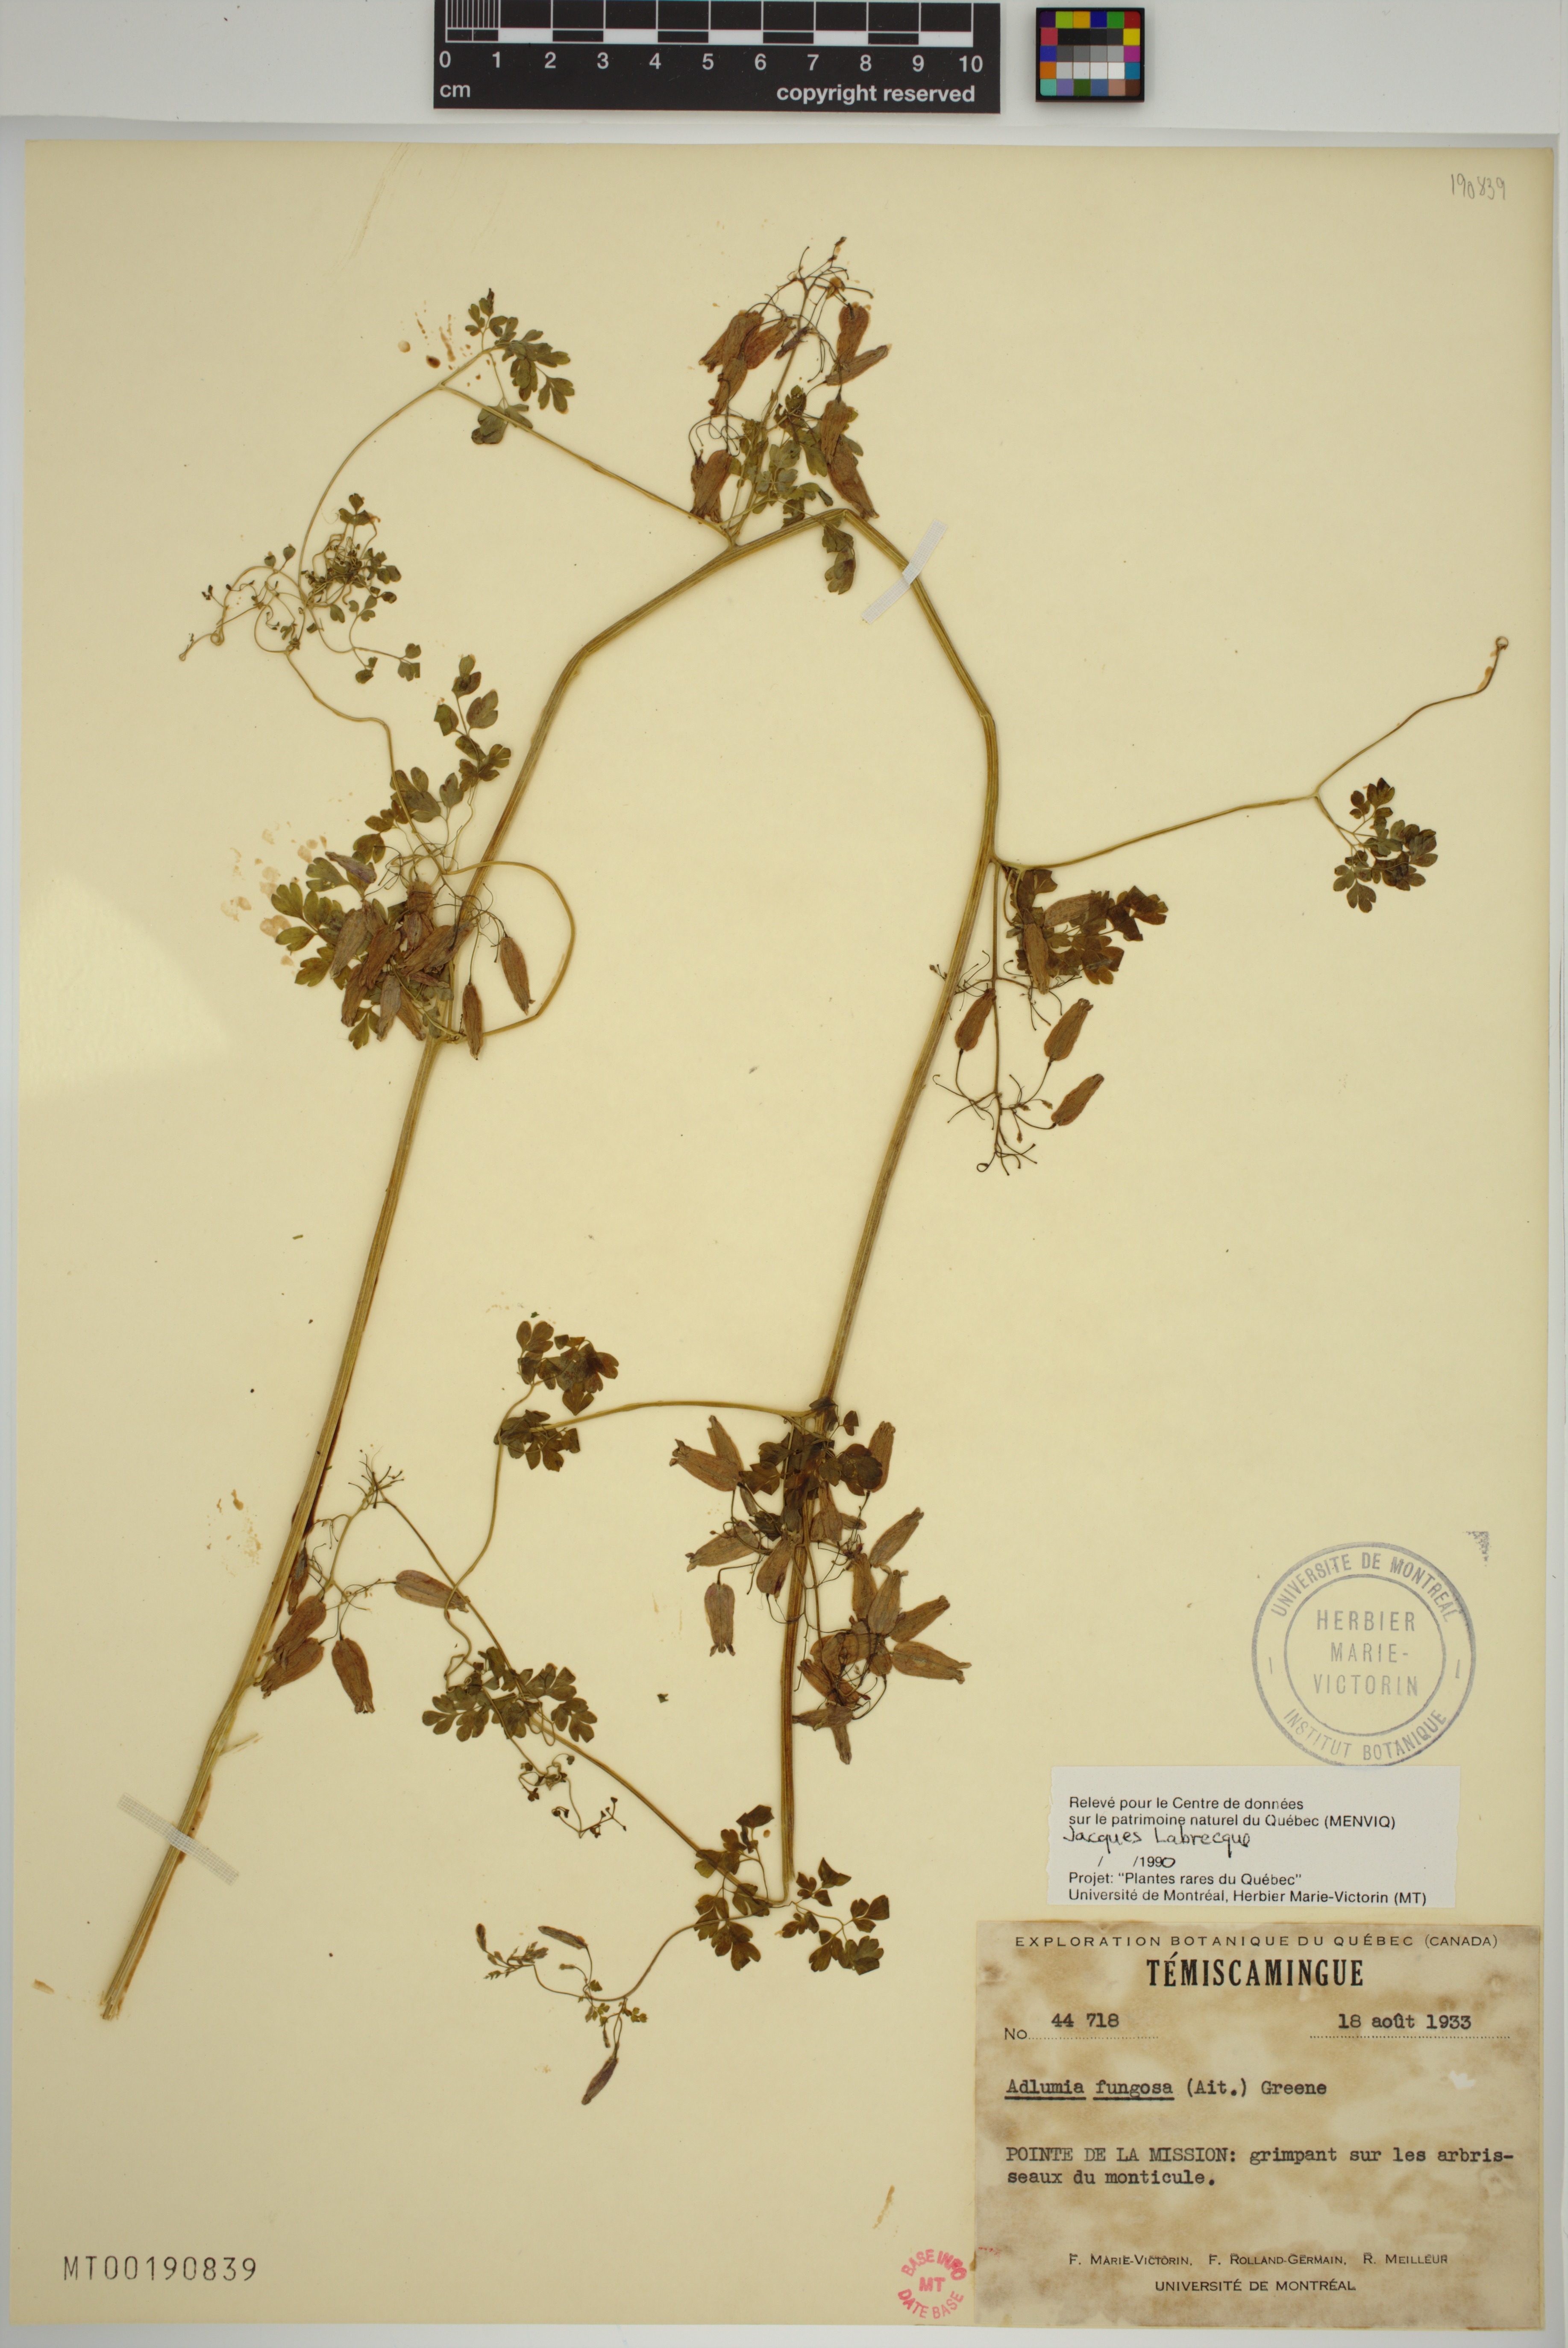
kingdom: Plantae
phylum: Tracheophyta
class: Magnoliopsida
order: Ranunculales
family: Papaveraceae
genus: Adlumia
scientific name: Adlumia fungosa
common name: Mountain-fringe
